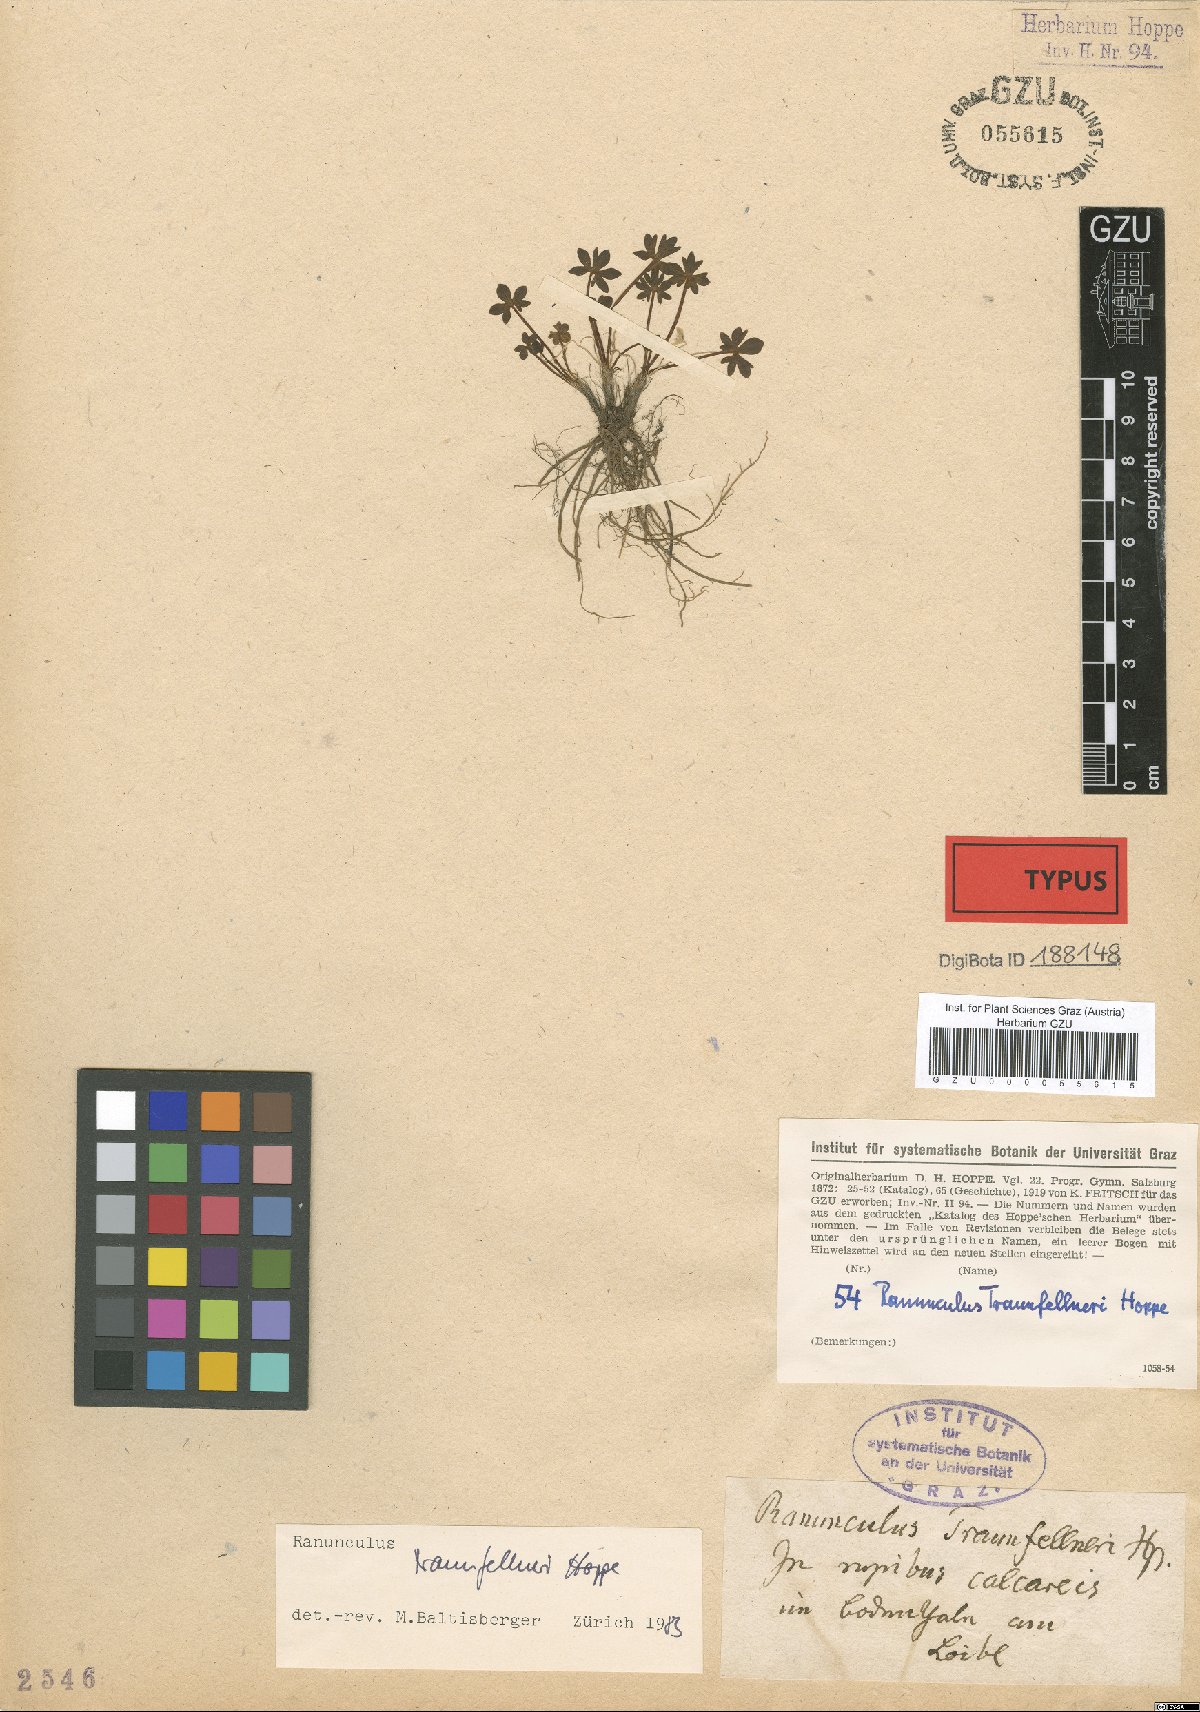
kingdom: Plantae
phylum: Tracheophyta
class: Magnoliopsida
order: Ranunculales
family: Ranunculaceae
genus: Ranunculus
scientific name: Ranunculus traunfellneri
